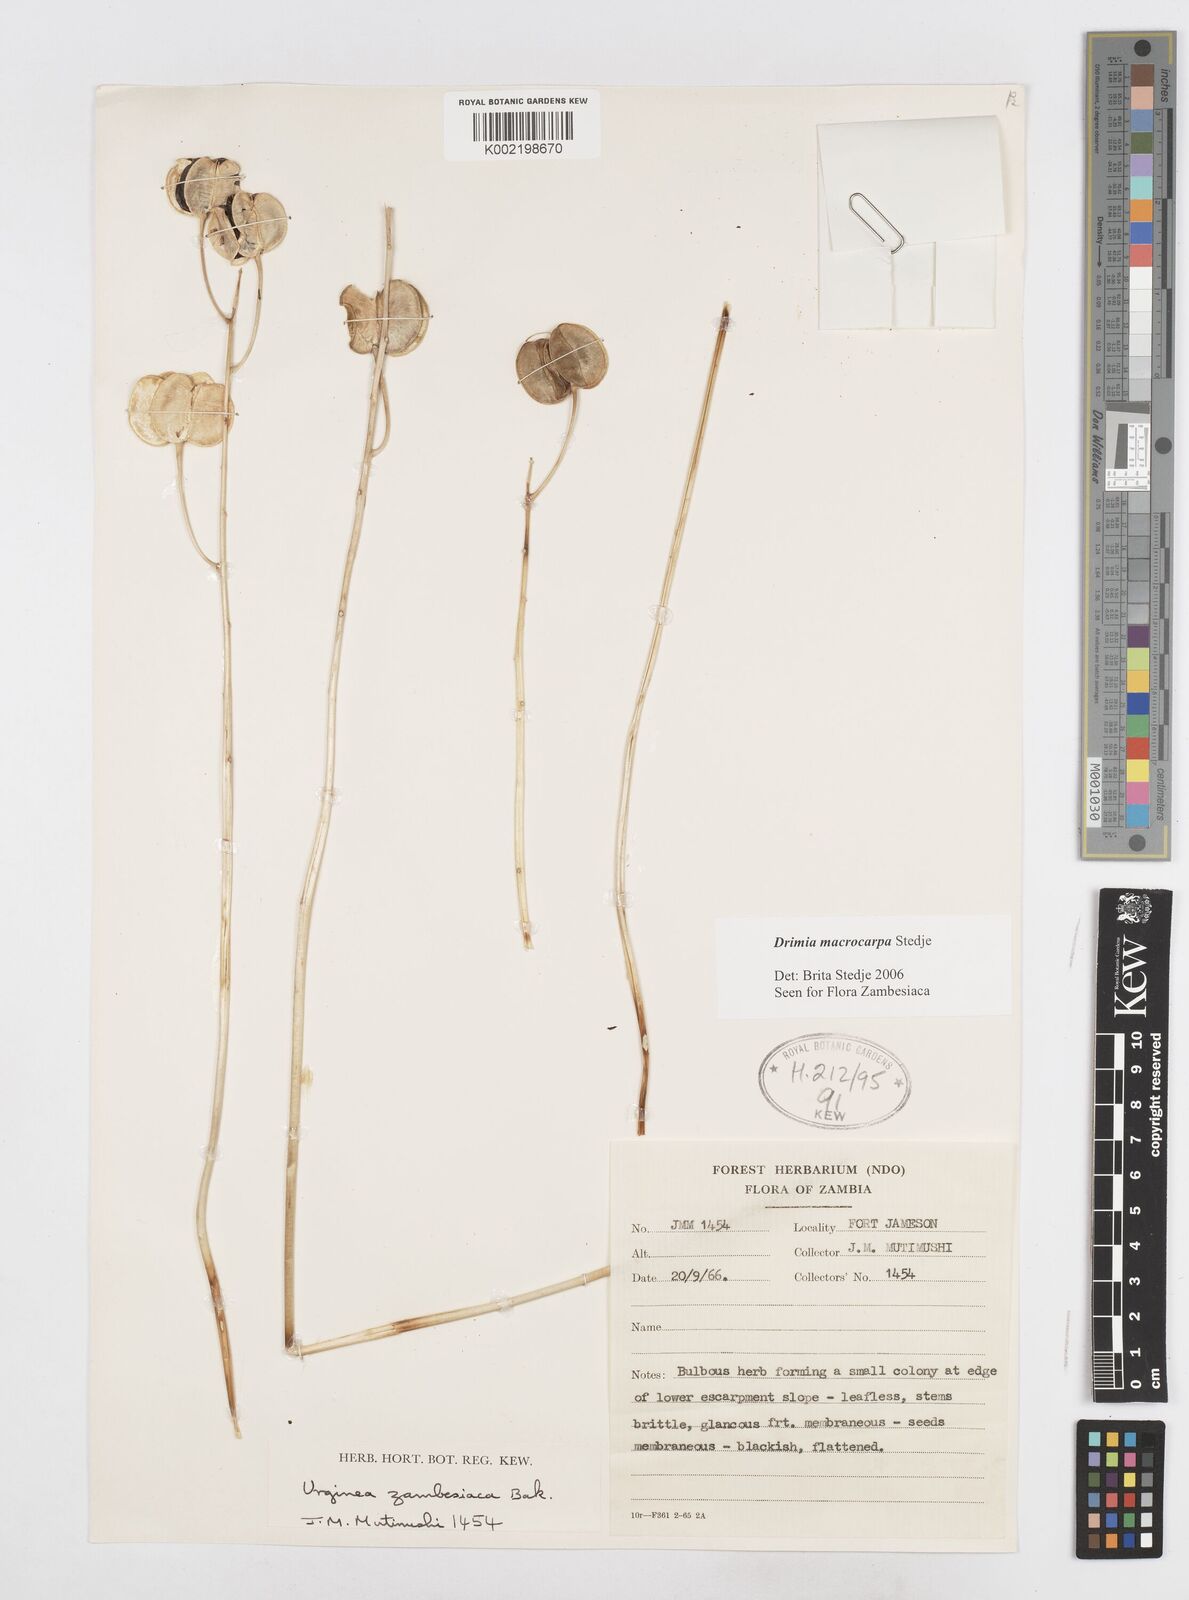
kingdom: Plantae
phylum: Tracheophyta
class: Liliopsida
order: Asparagales
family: Asparagaceae
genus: Drimia
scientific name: Drimia basutica
